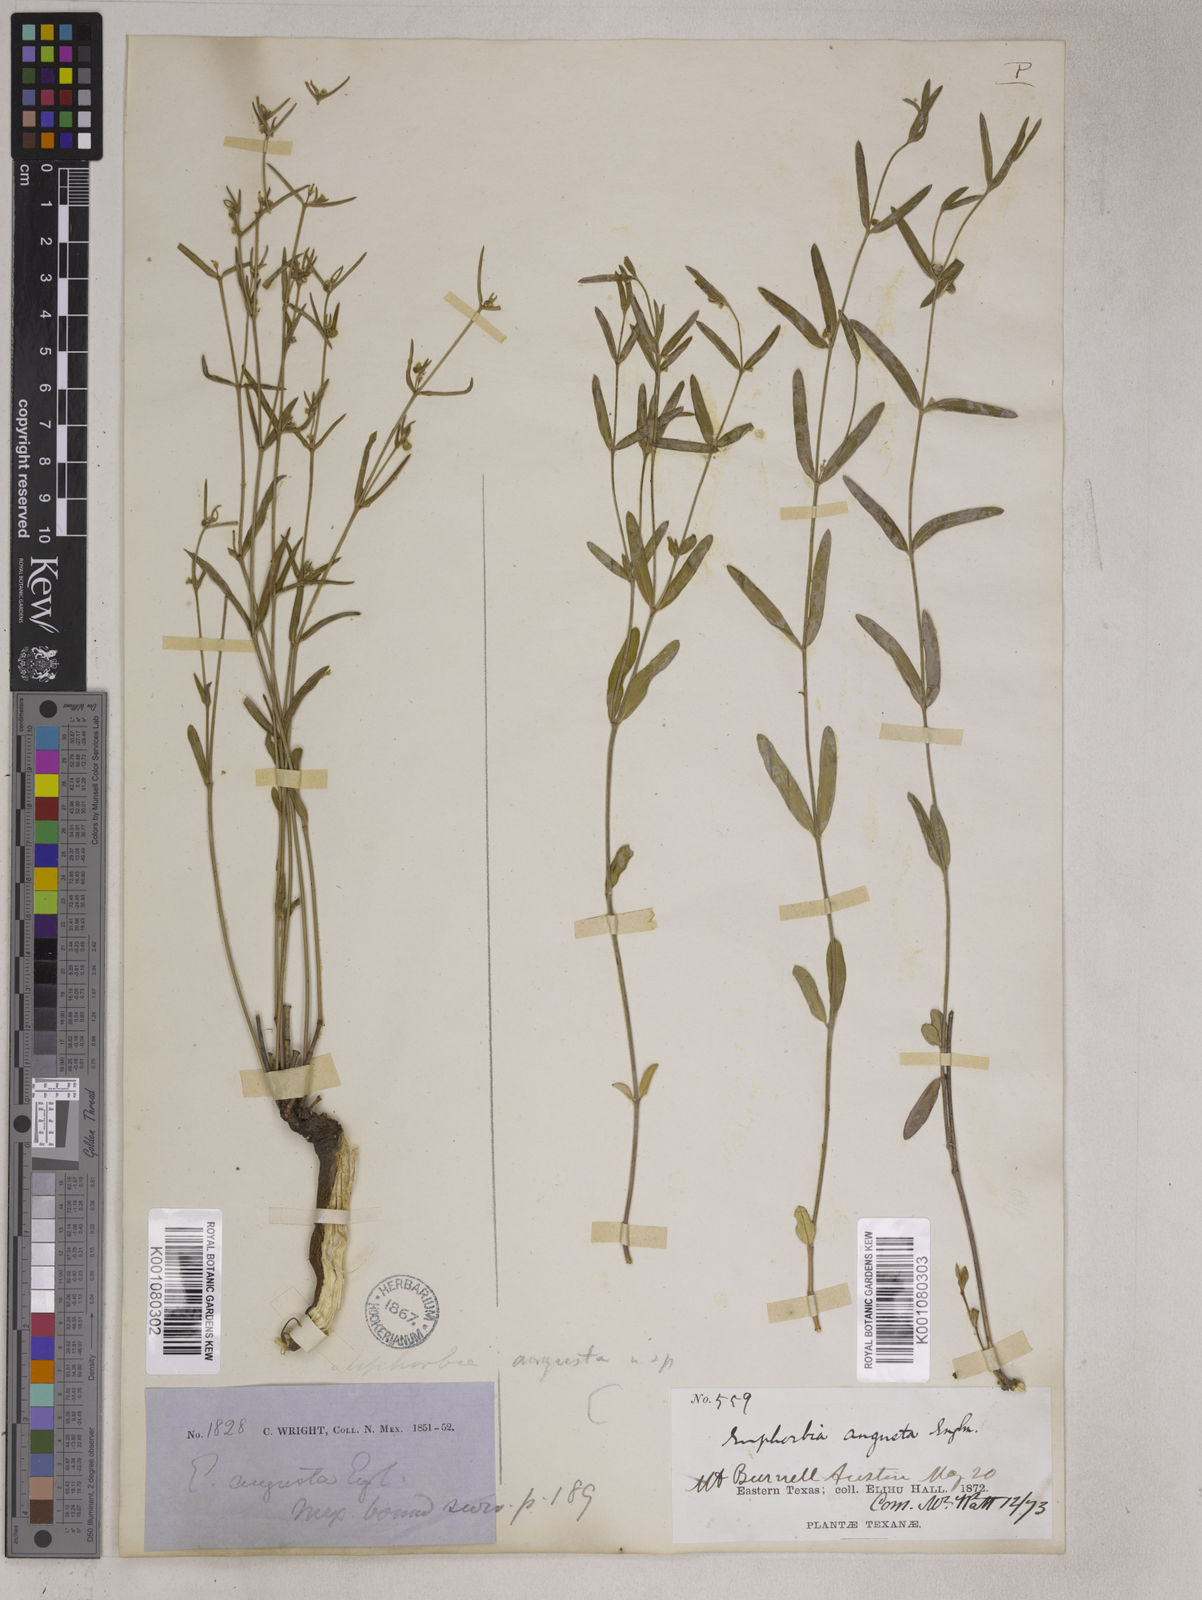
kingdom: Plantae
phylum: Tracheophyta
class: Magnoliopsida
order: Malpighiales
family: Euphorbiaceae
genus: Euphorbia
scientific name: Euphorbia angusta
